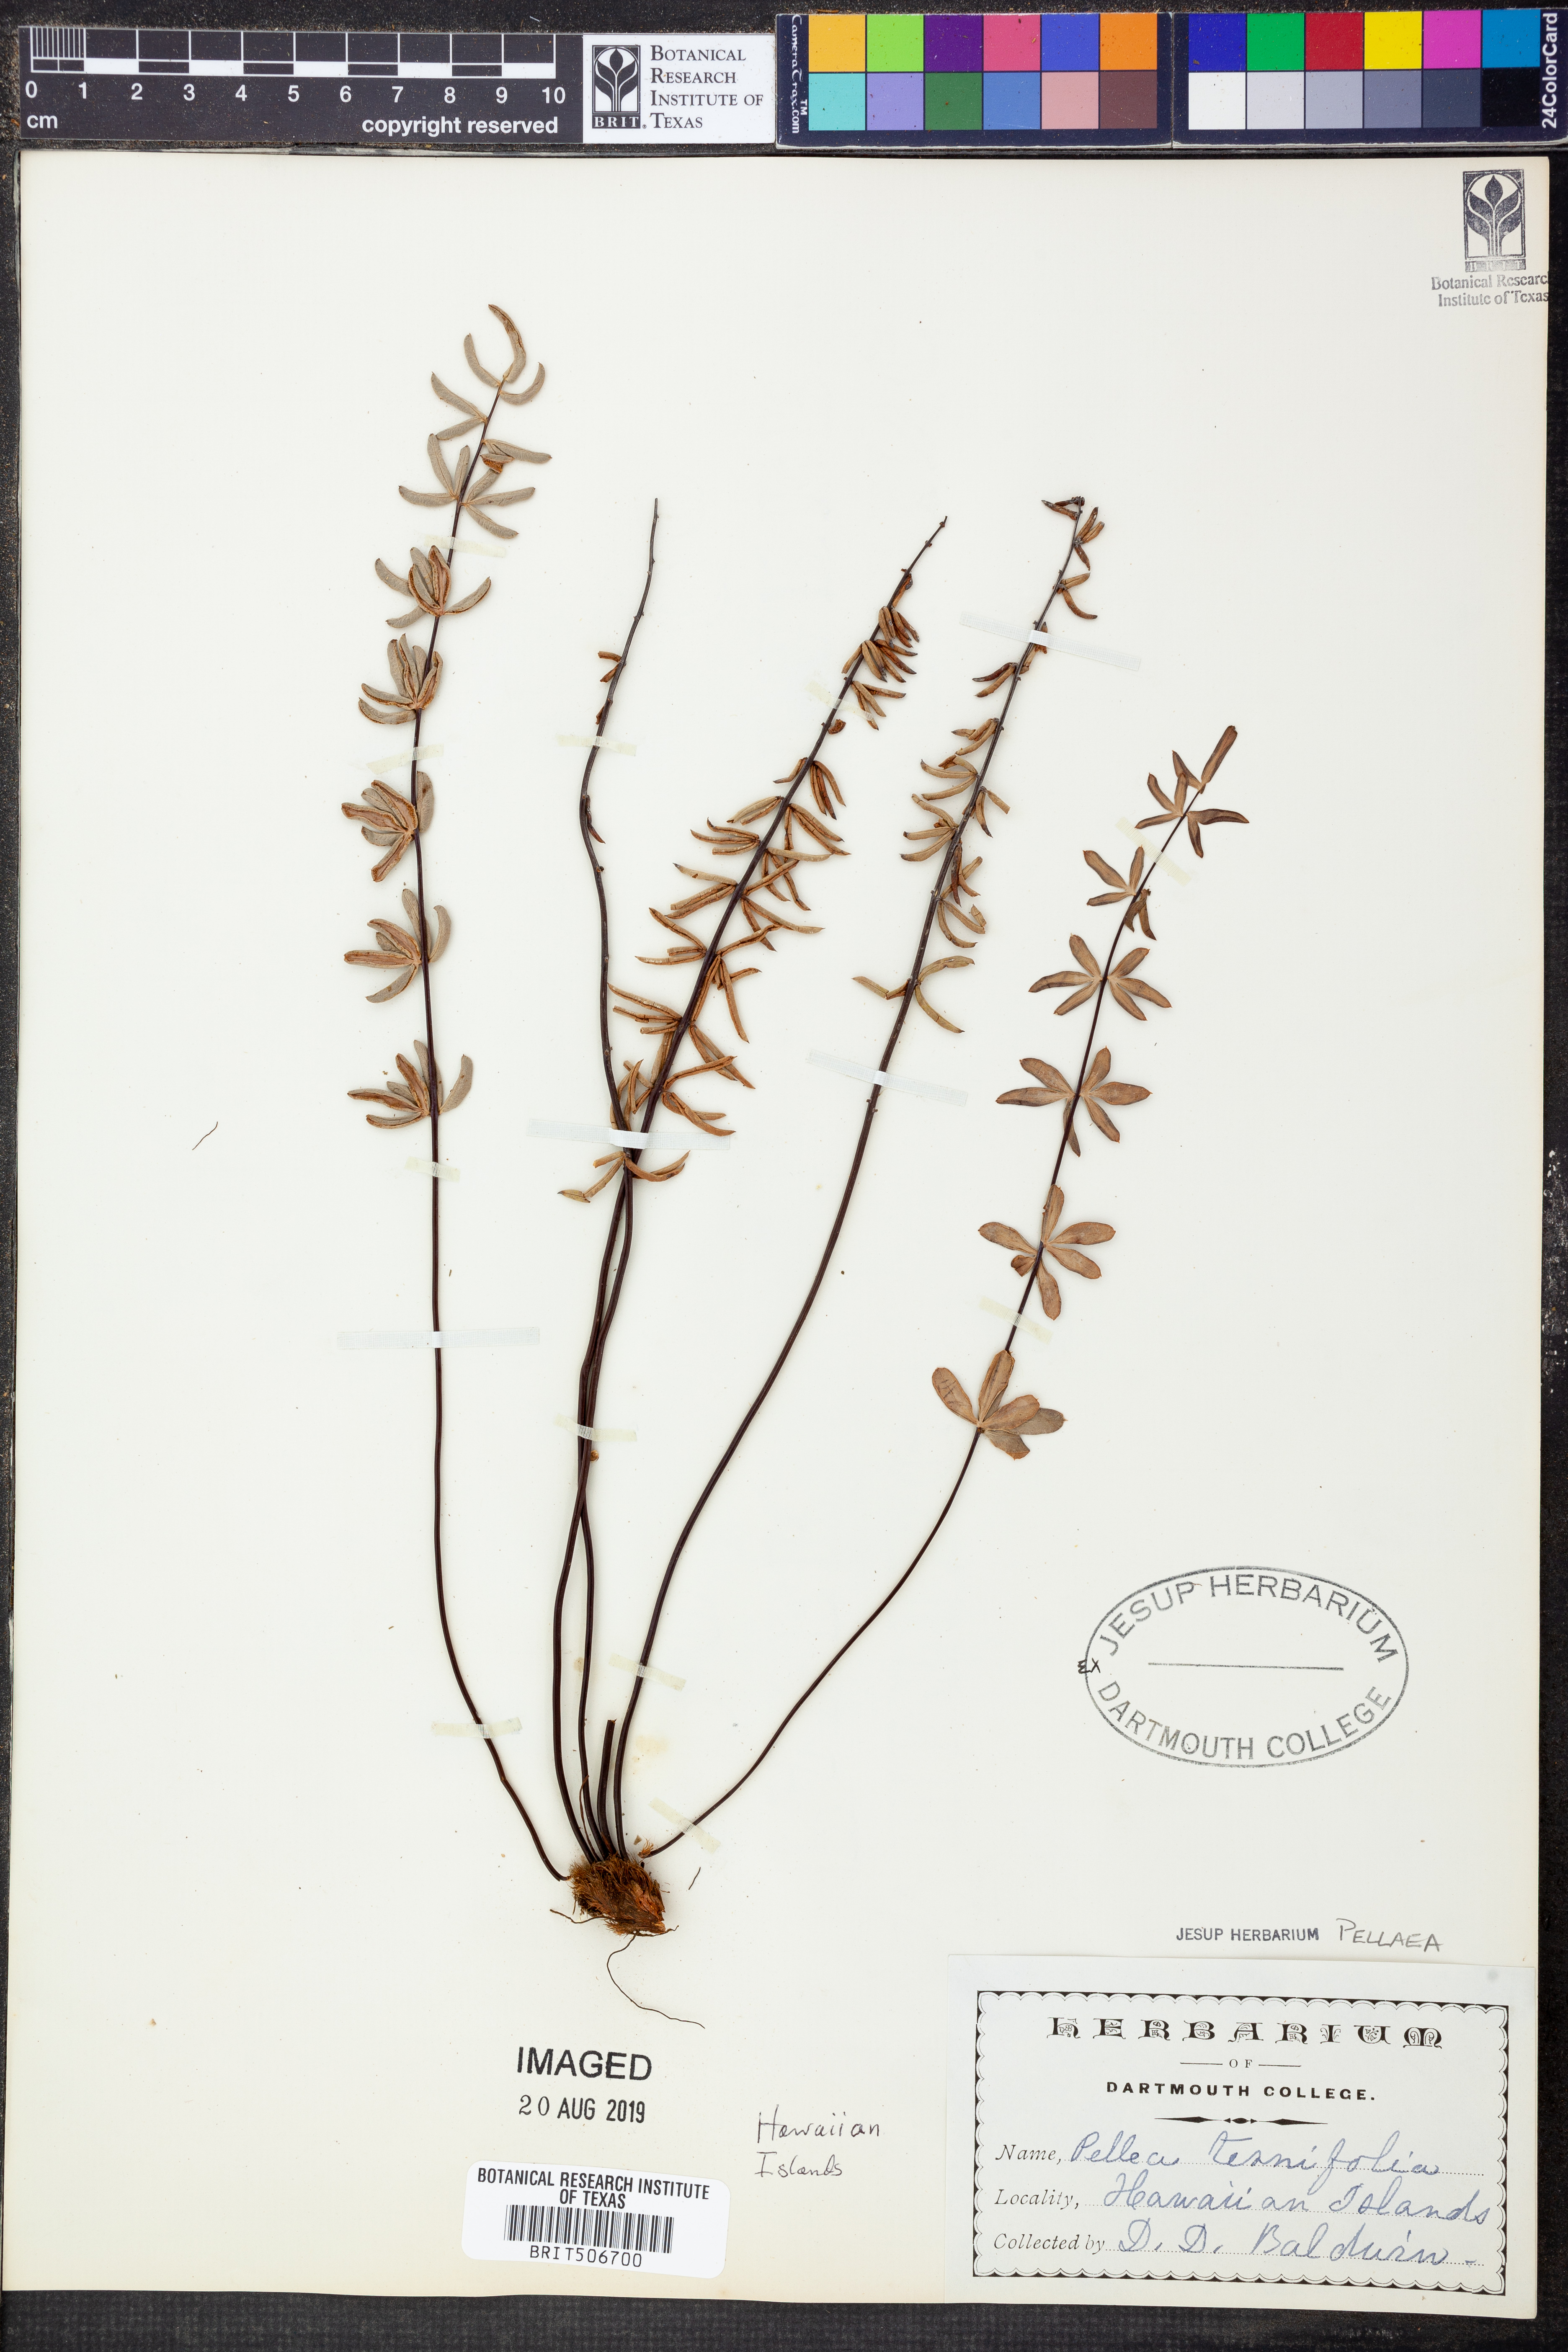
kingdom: Plantae
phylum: Tracheophyta
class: Polypodiopsida
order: Polypodiales
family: Pteridaceae
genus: Pellaea
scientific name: Pellaea ternifolia
